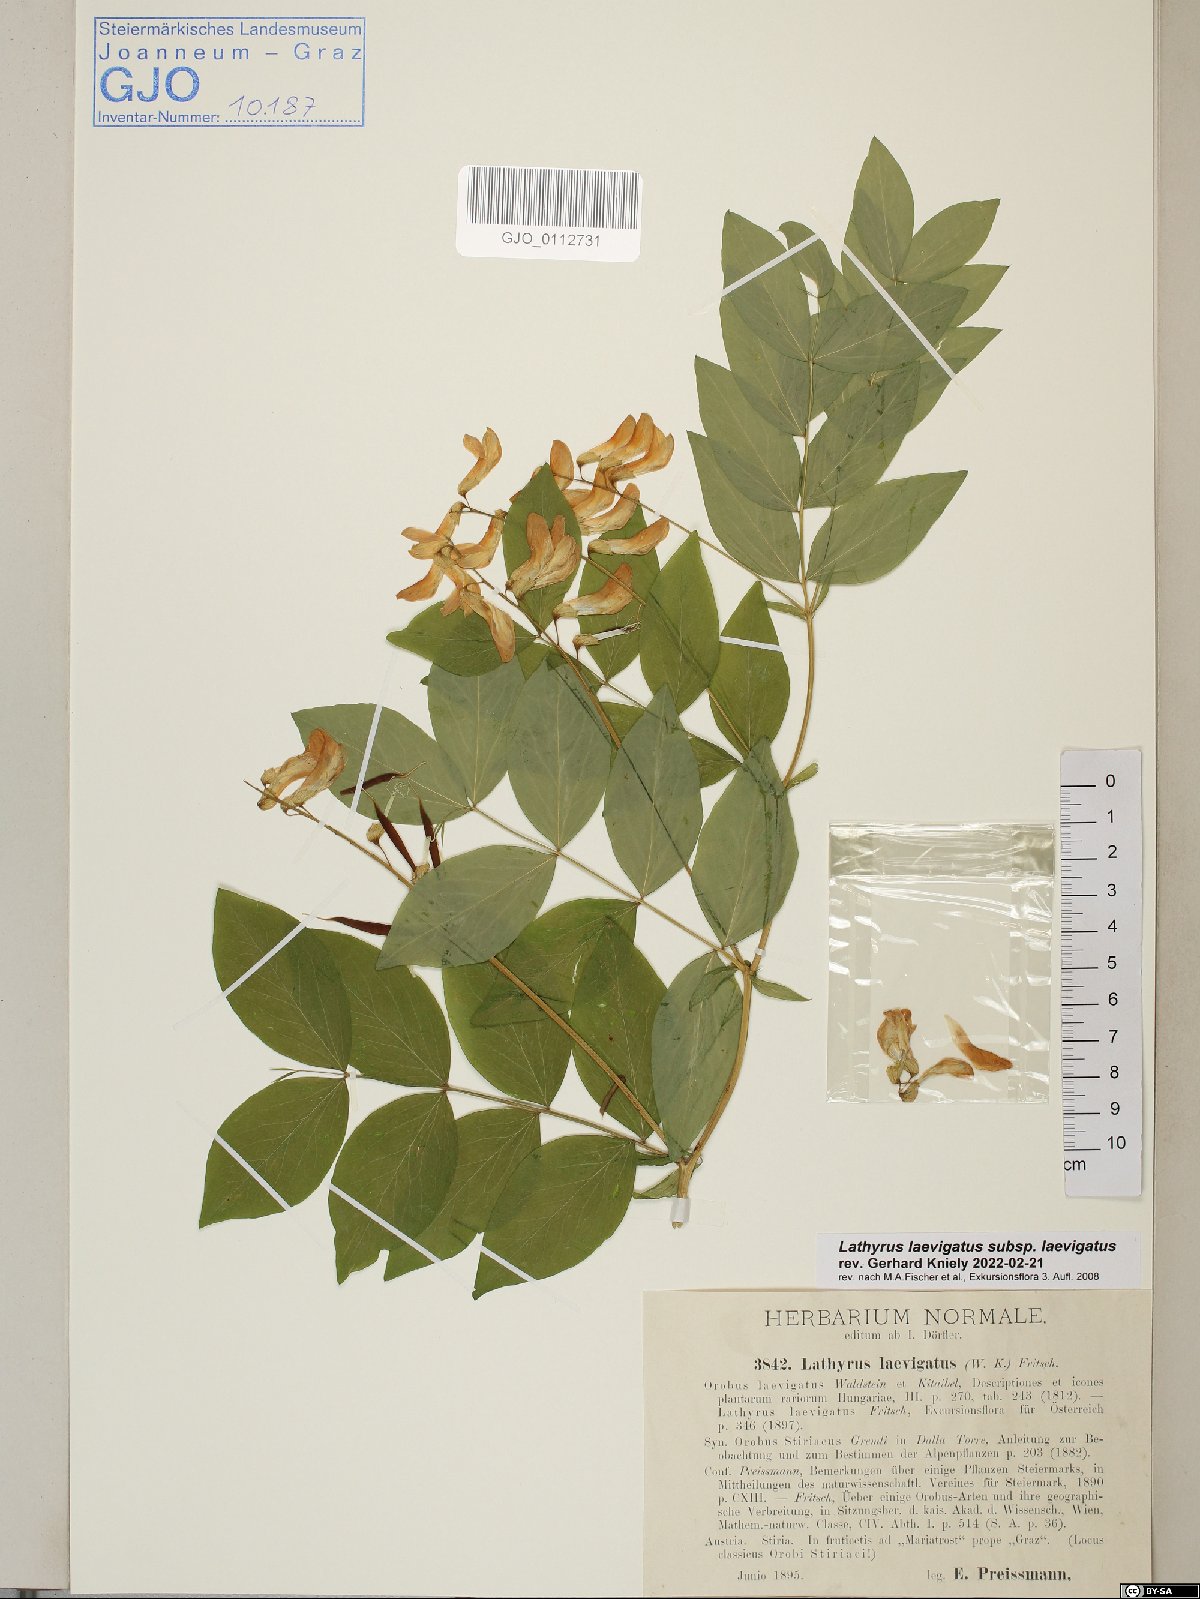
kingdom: Plantae
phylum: Tracheophyta
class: Magnoliopsida
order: Fabales
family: Fabaceae
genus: Lathyrus
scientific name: Lathyrus laevigatus
